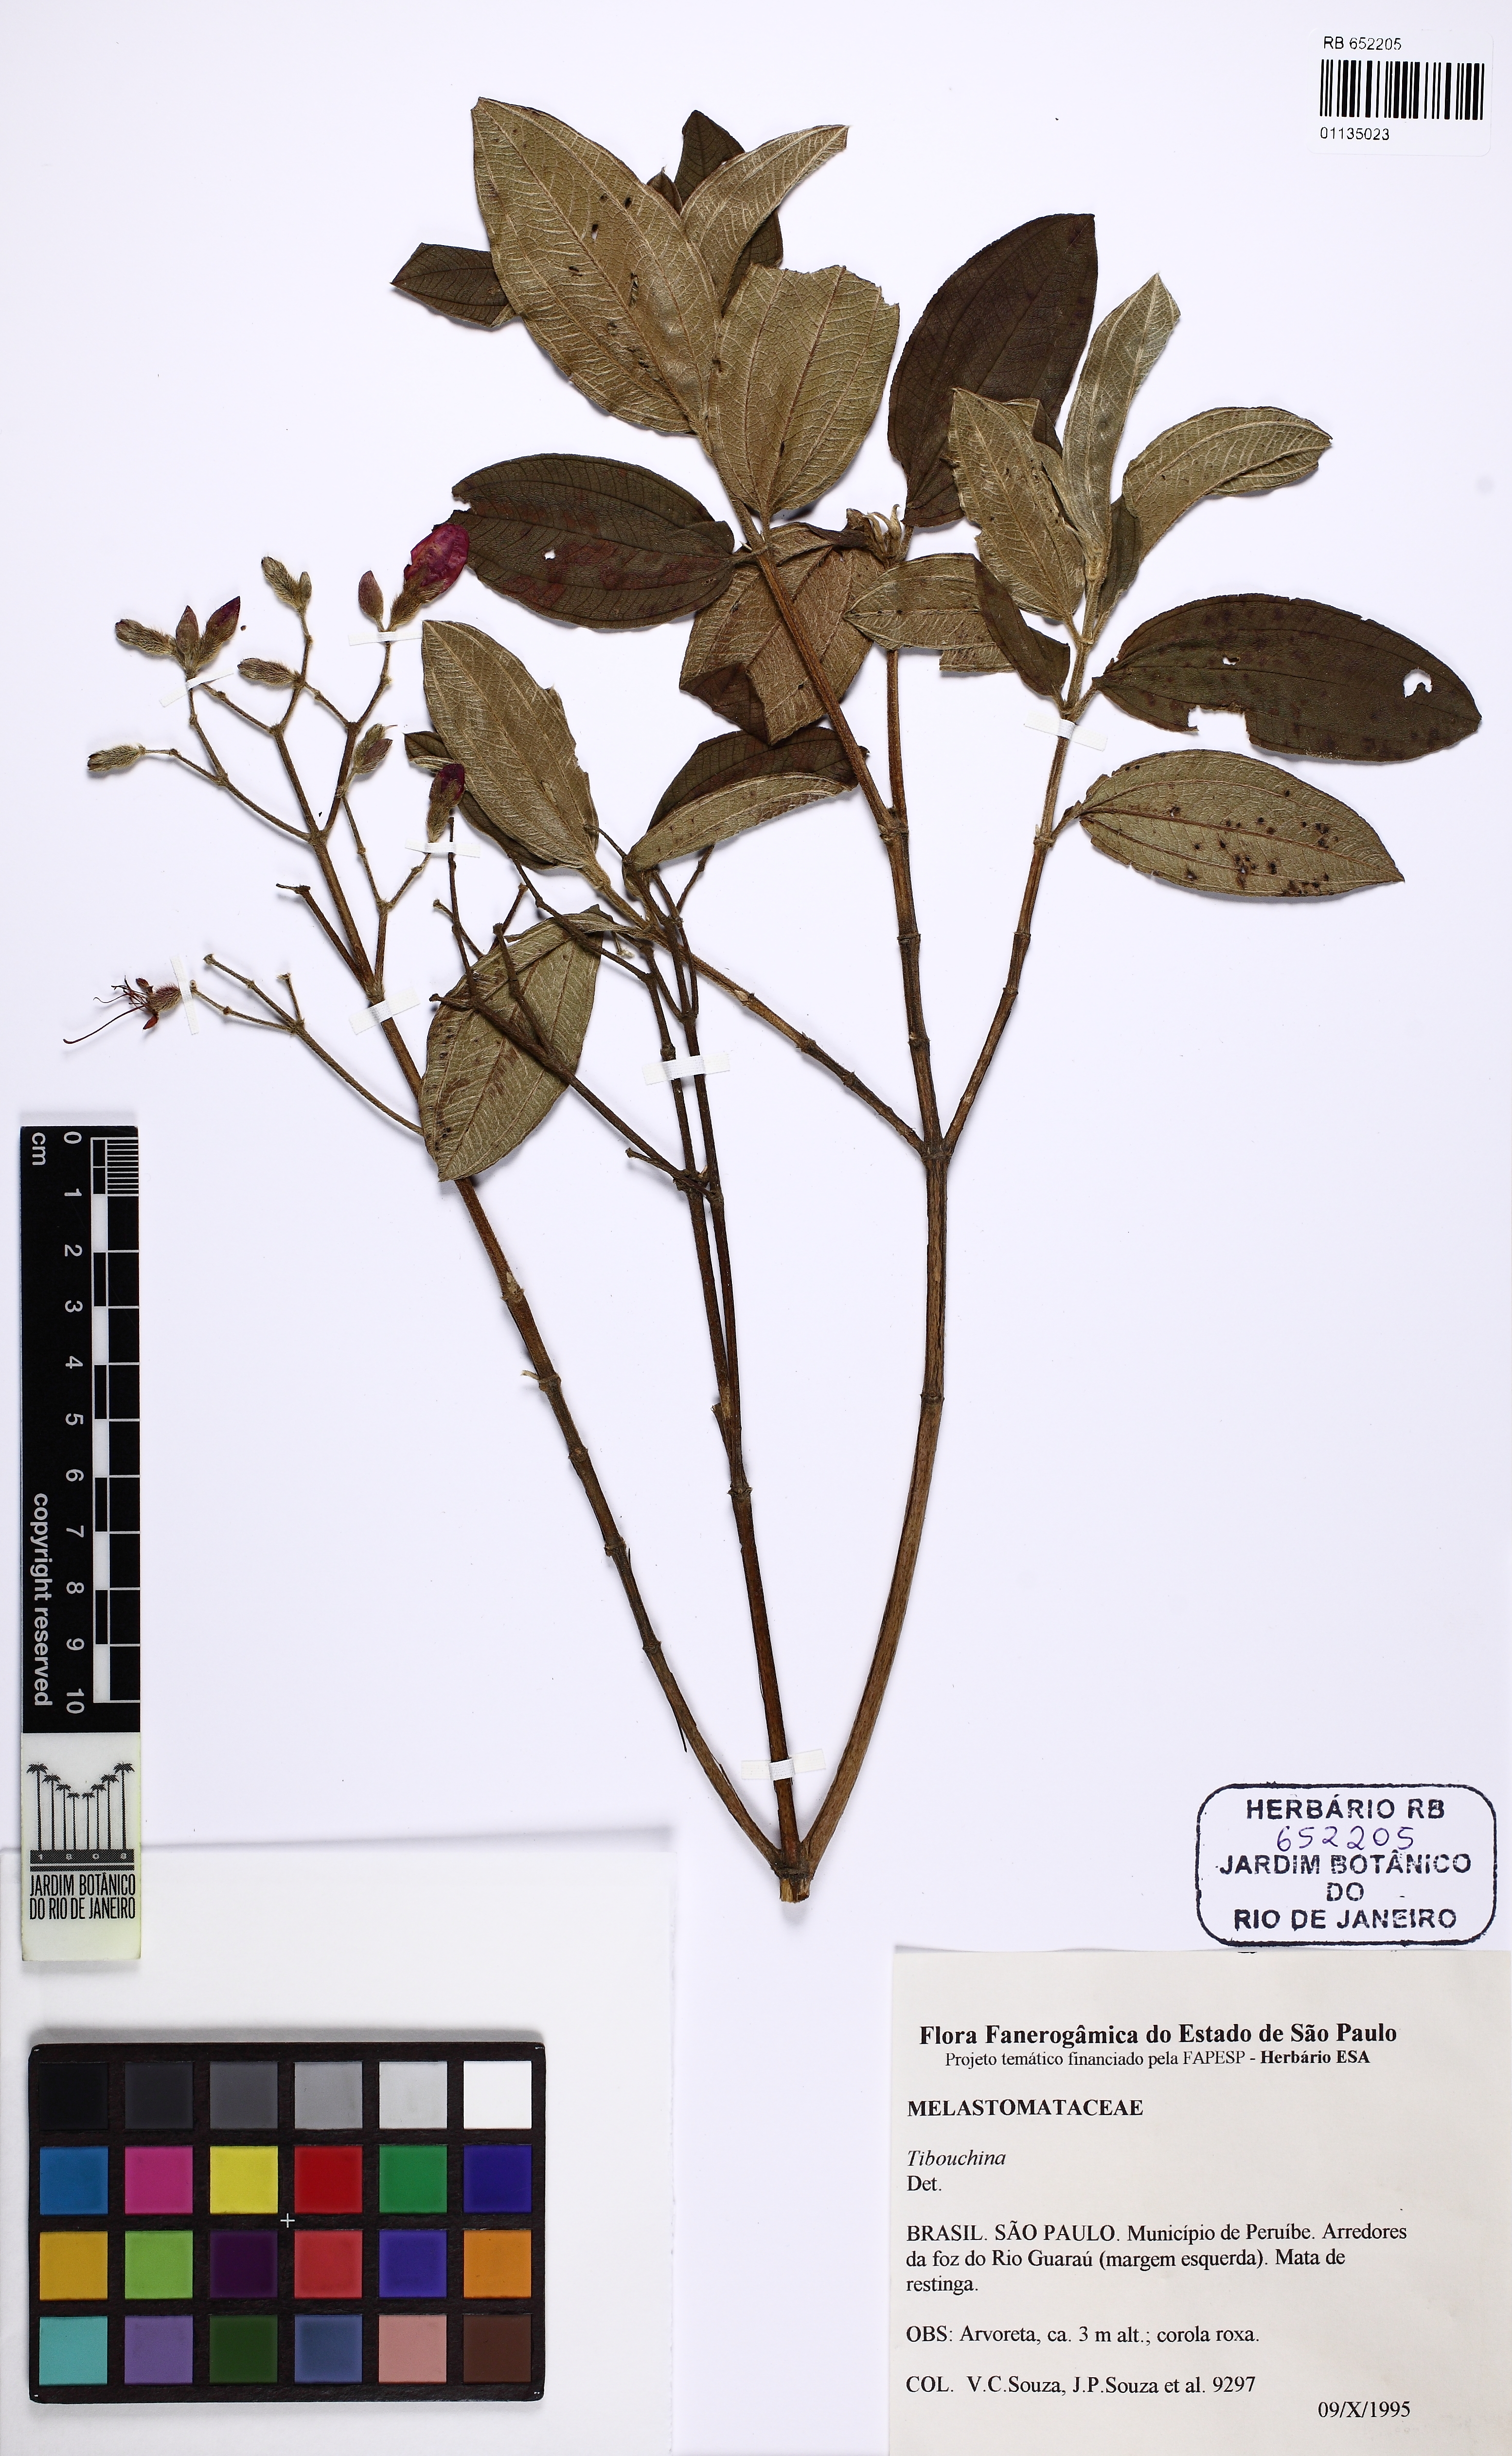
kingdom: Plantae
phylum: Tracheophyta
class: Magnoliopsida
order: Myrtales
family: Melastomataceae
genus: Tibouchina
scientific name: Tibouchina
